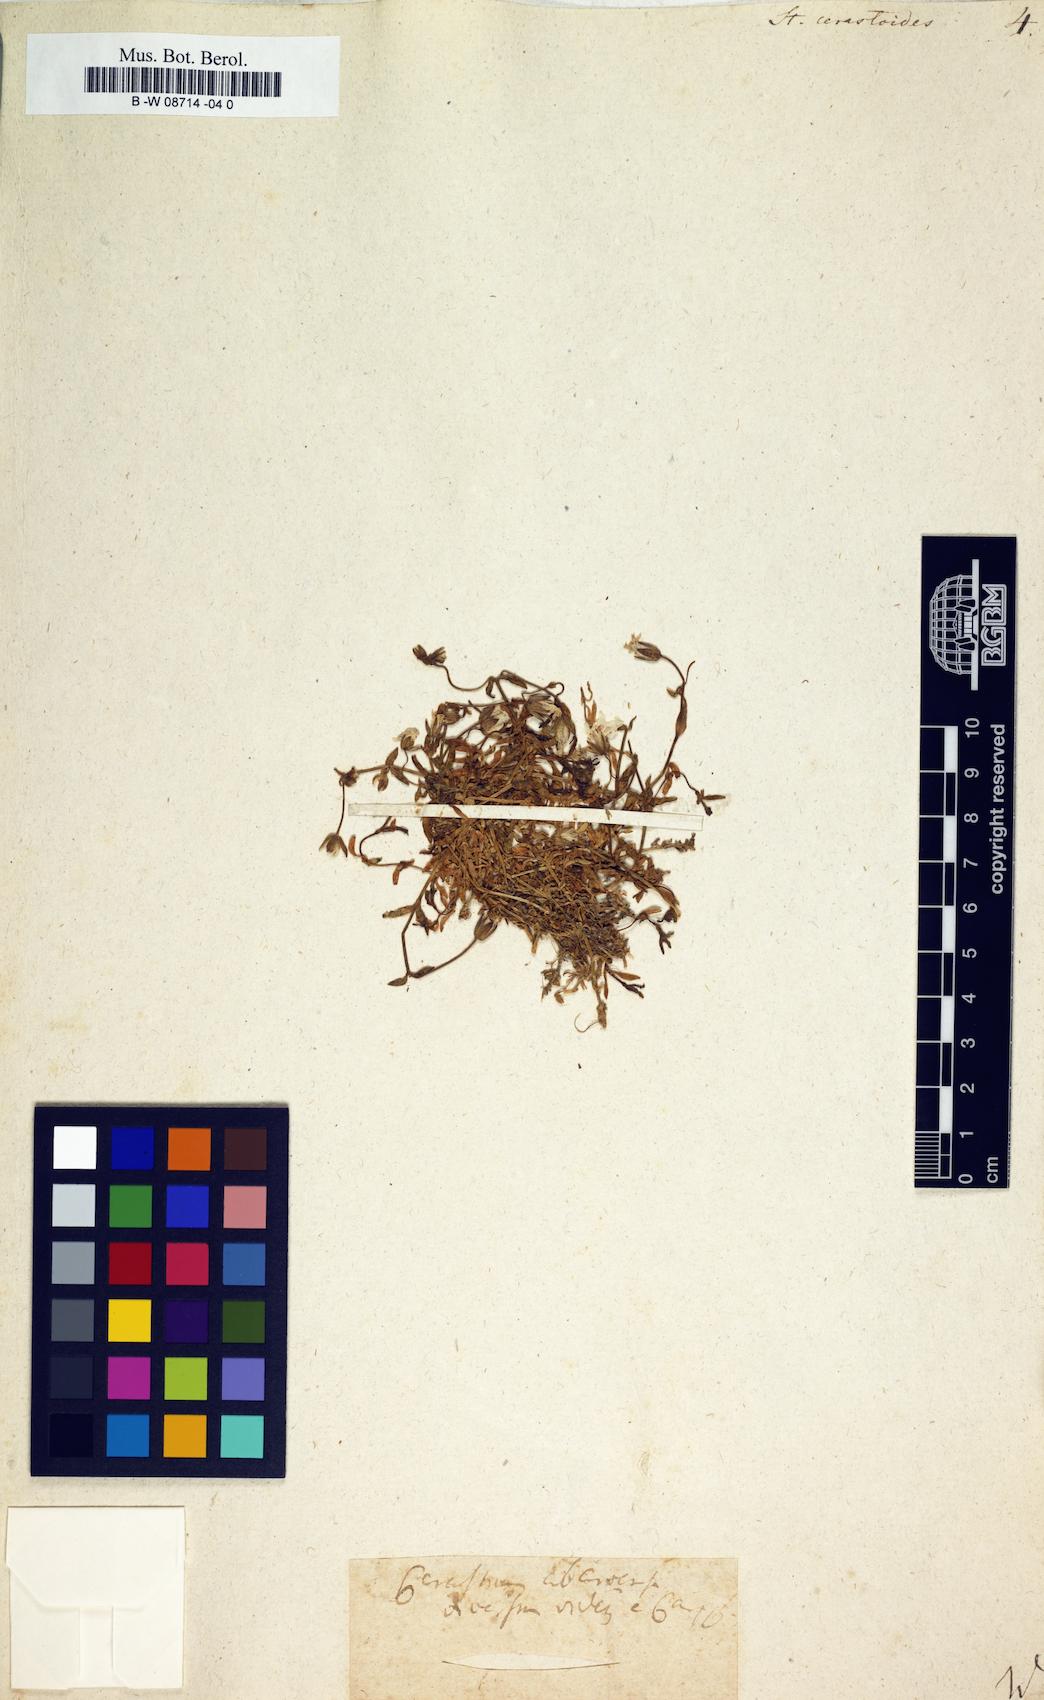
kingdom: Plantae
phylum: Tracheophyta
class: Magnoliopsida
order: Caryophyllales
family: Caryophyllaceae
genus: Stellaria
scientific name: Stellaria cerastoides
